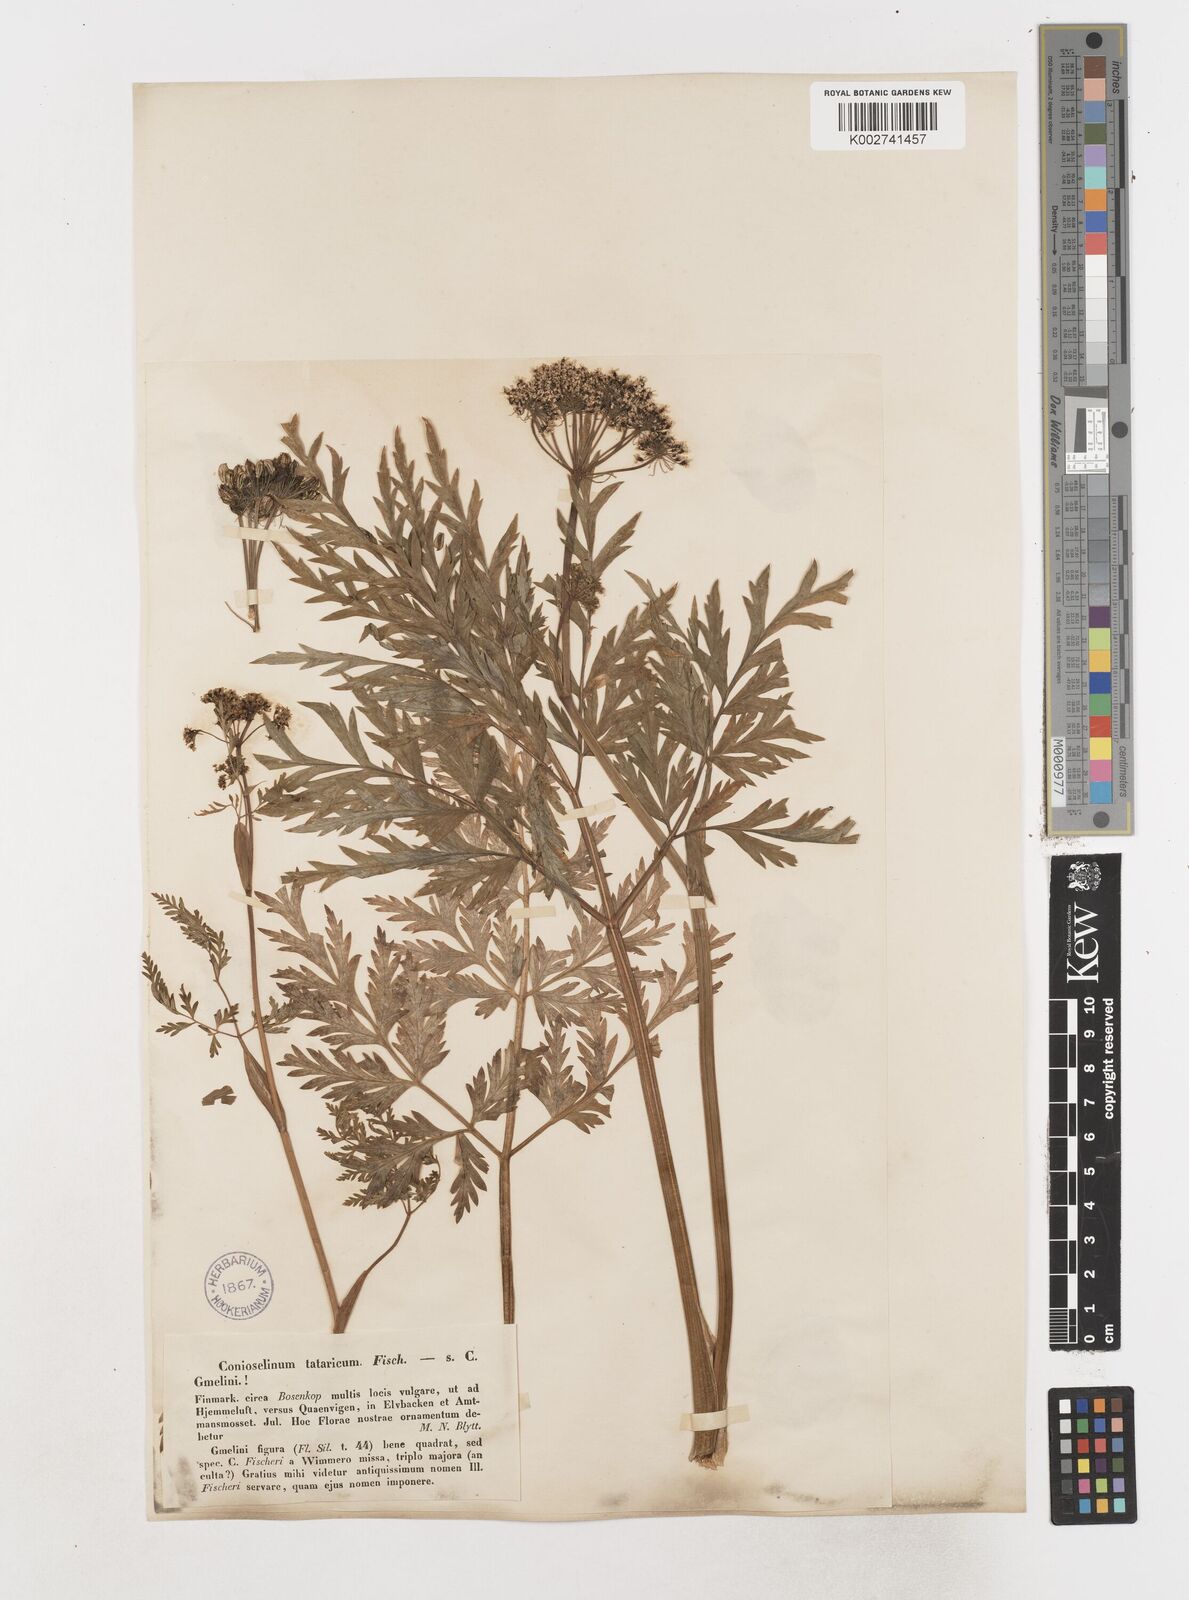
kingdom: Plantae
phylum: Tracheophyta
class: Magnoliopsida
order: Apiales
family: Apiaceae
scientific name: Apiaceae
